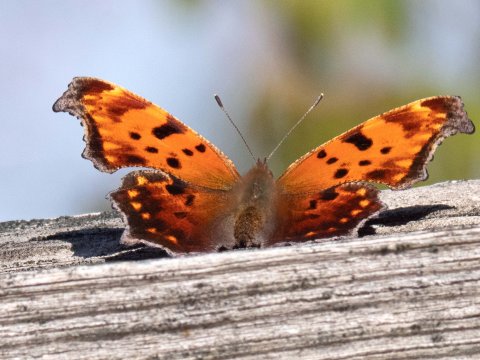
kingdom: Animalia
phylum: Arthropoda
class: Insecta
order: Lepidoptera
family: Nymphalidae
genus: Polygonia
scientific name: Polygonia comma
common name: Eastern Comma
